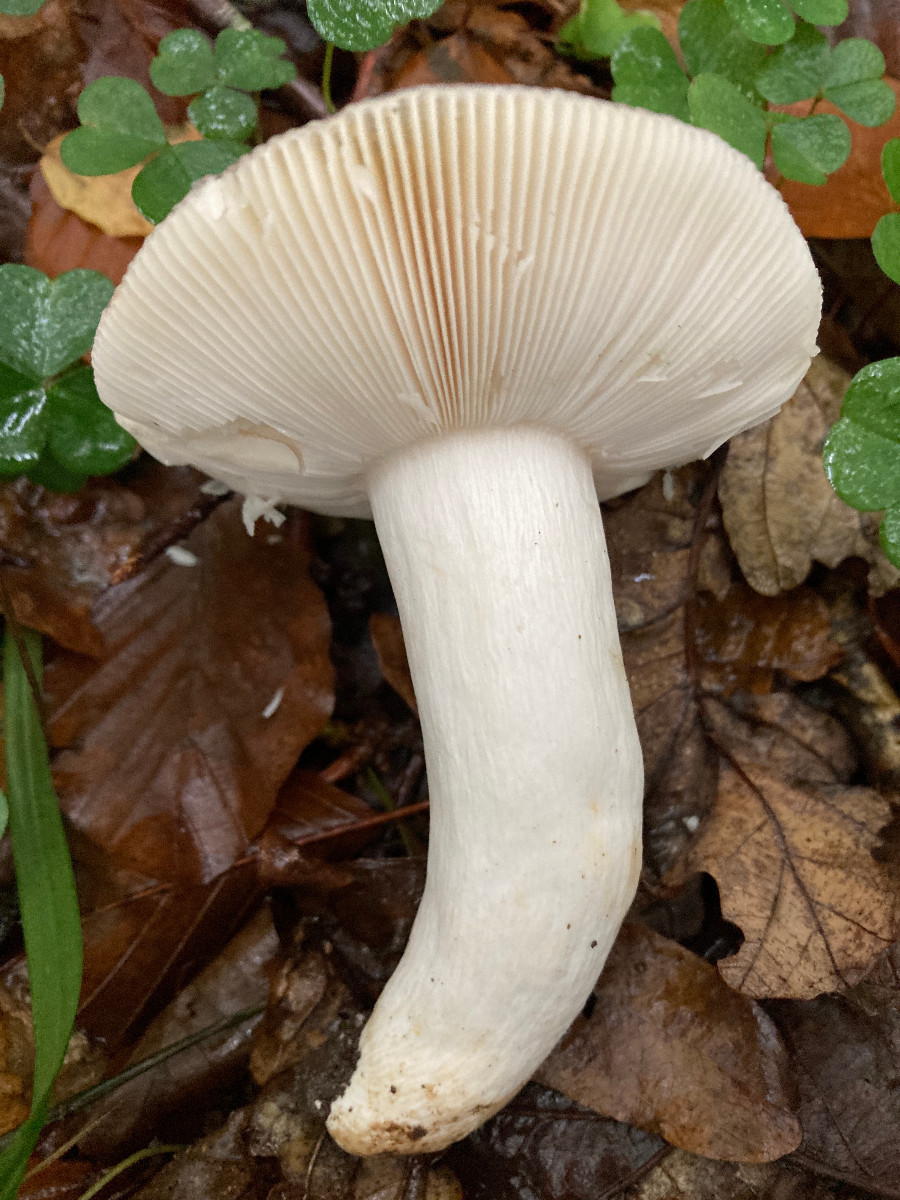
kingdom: Fungi
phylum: Basidiomycota
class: Agaricomycetes
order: Russulales
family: Russulaceae
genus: Russula
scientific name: Russula
